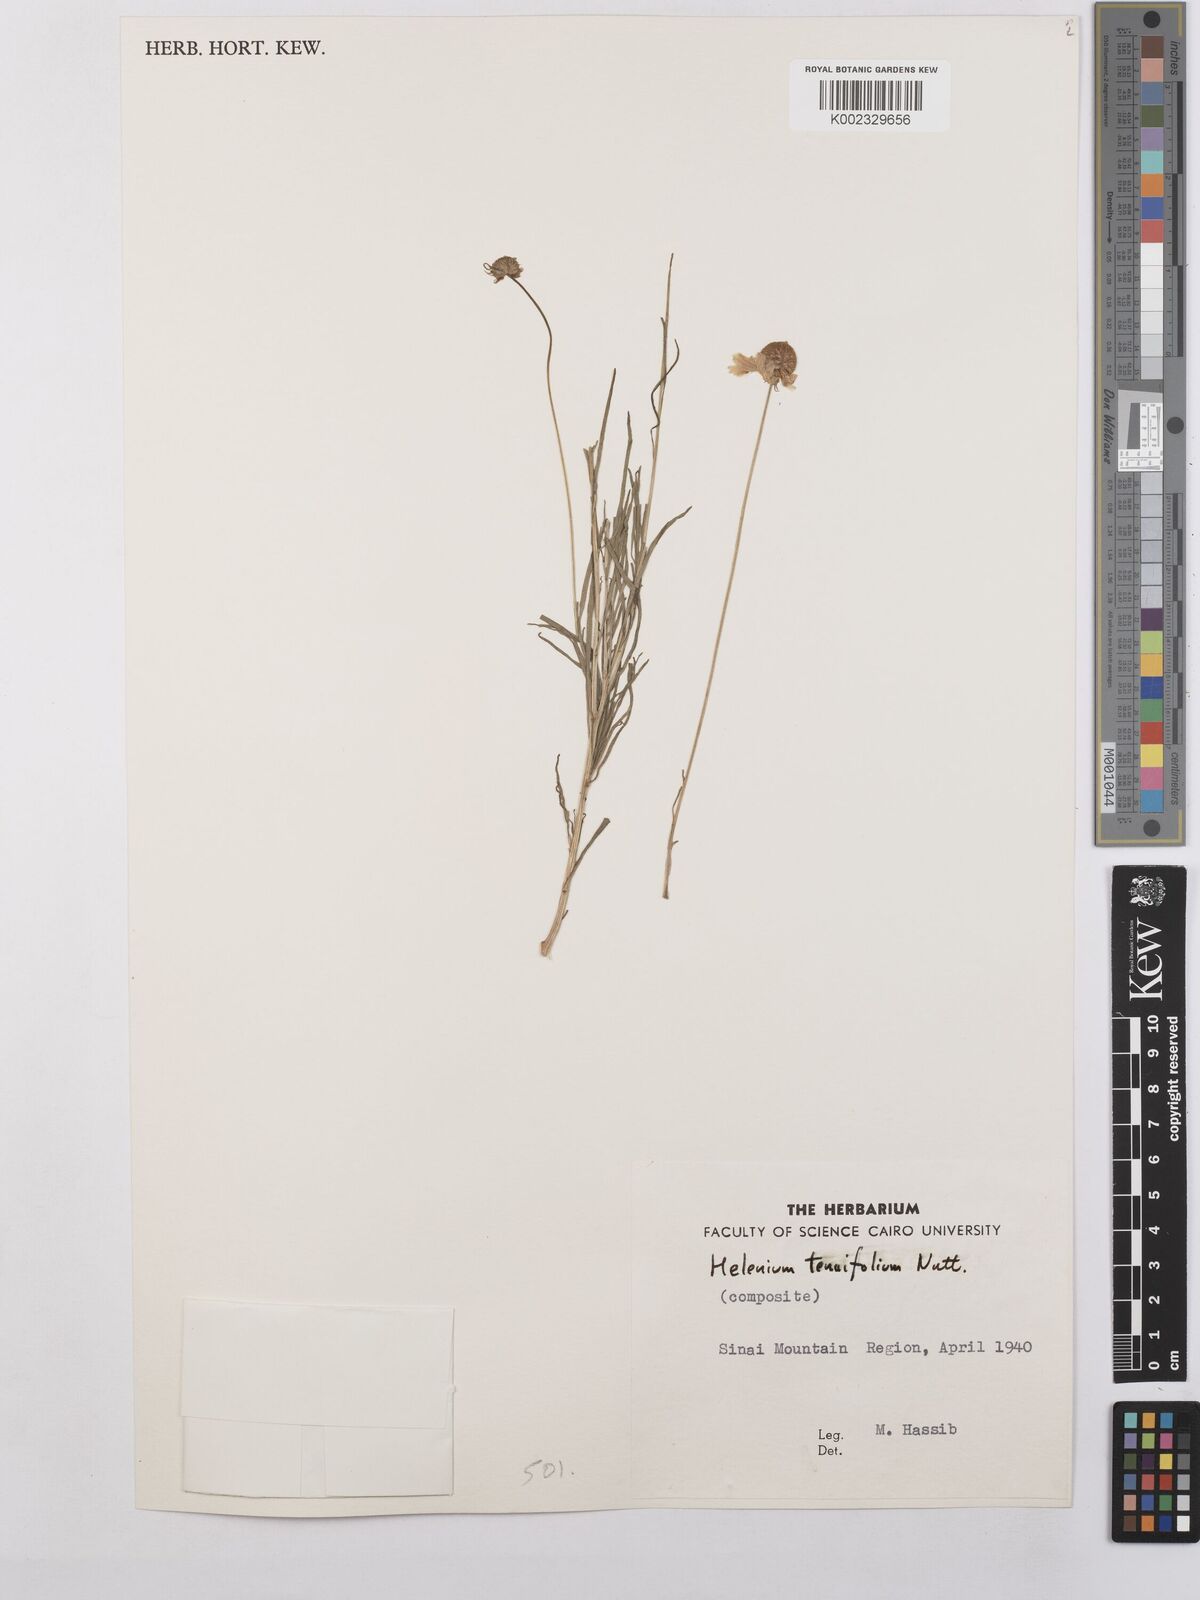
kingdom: Plantae
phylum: Tracheophyta
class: Magnoliopsida
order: Asterales
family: Asteraceae
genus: Helenium
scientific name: Helenium amarum
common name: Bitter sneezeweed
